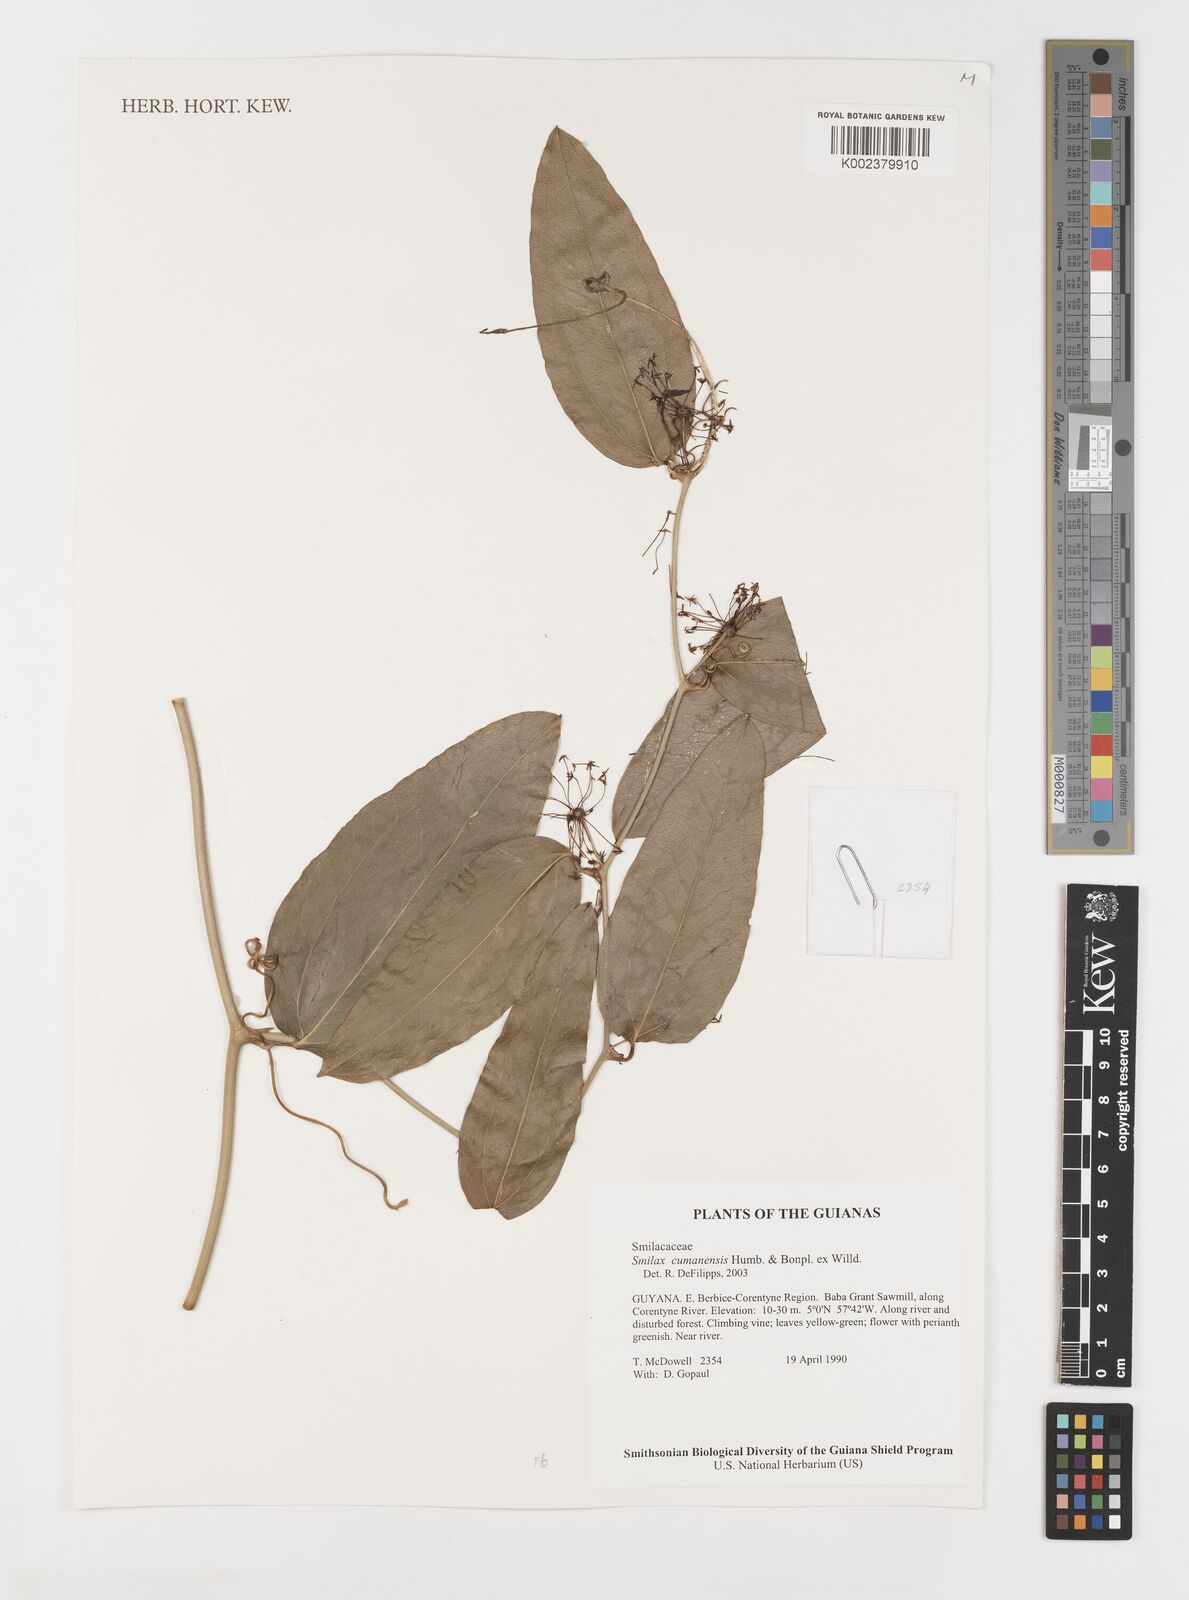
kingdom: Plantae
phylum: Tracheophyta
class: Liliopsida
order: Liliales
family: Smilacaceae
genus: Smilax
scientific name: Smilax oblongata
